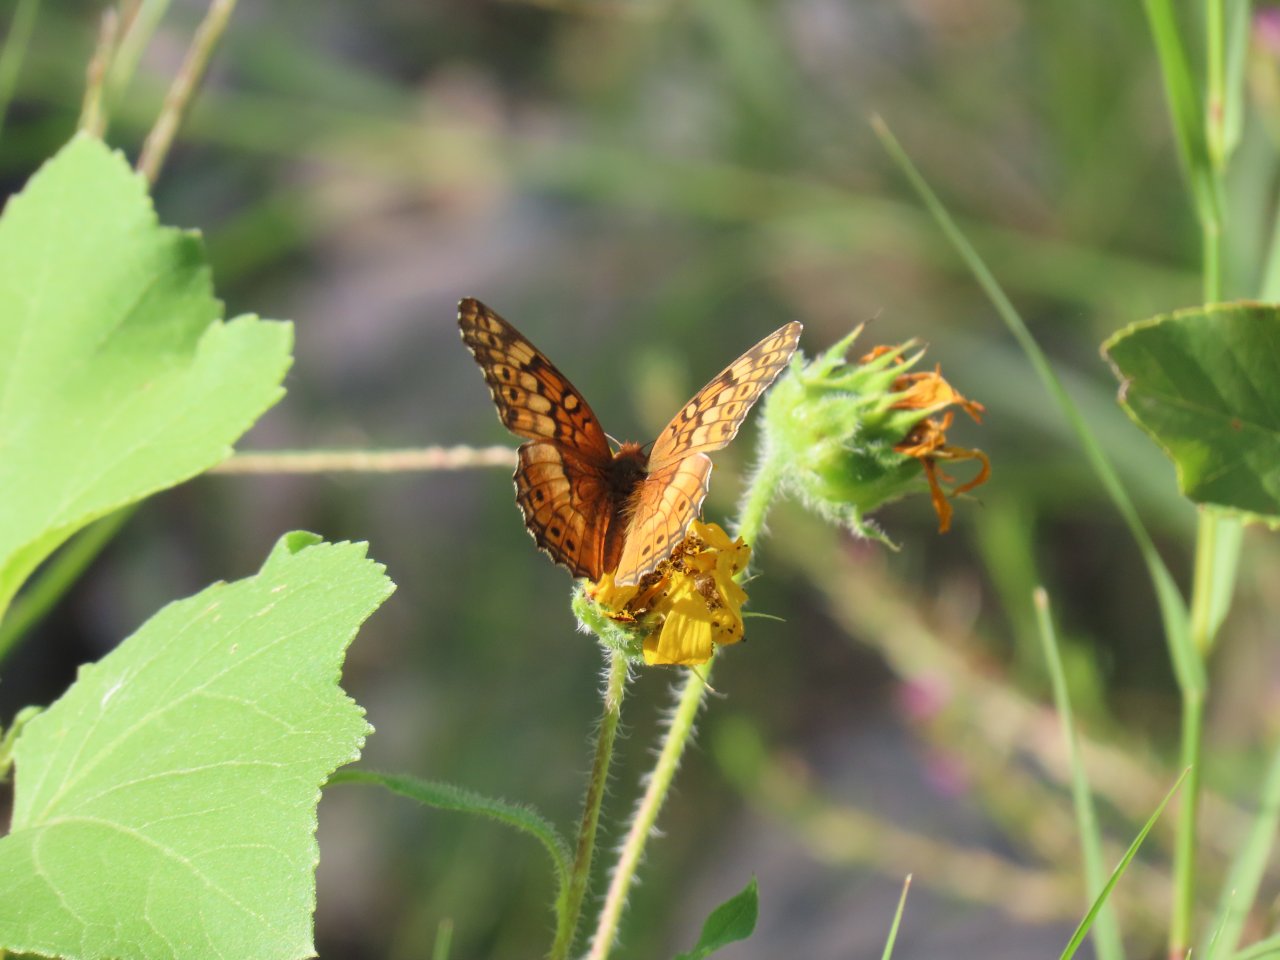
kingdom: Animalia
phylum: Arthropoda
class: Insecta
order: Lepidoptera
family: Nymphalidae
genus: Euptoieta
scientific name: Euptoieta claudia
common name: Variegated Fritillary
